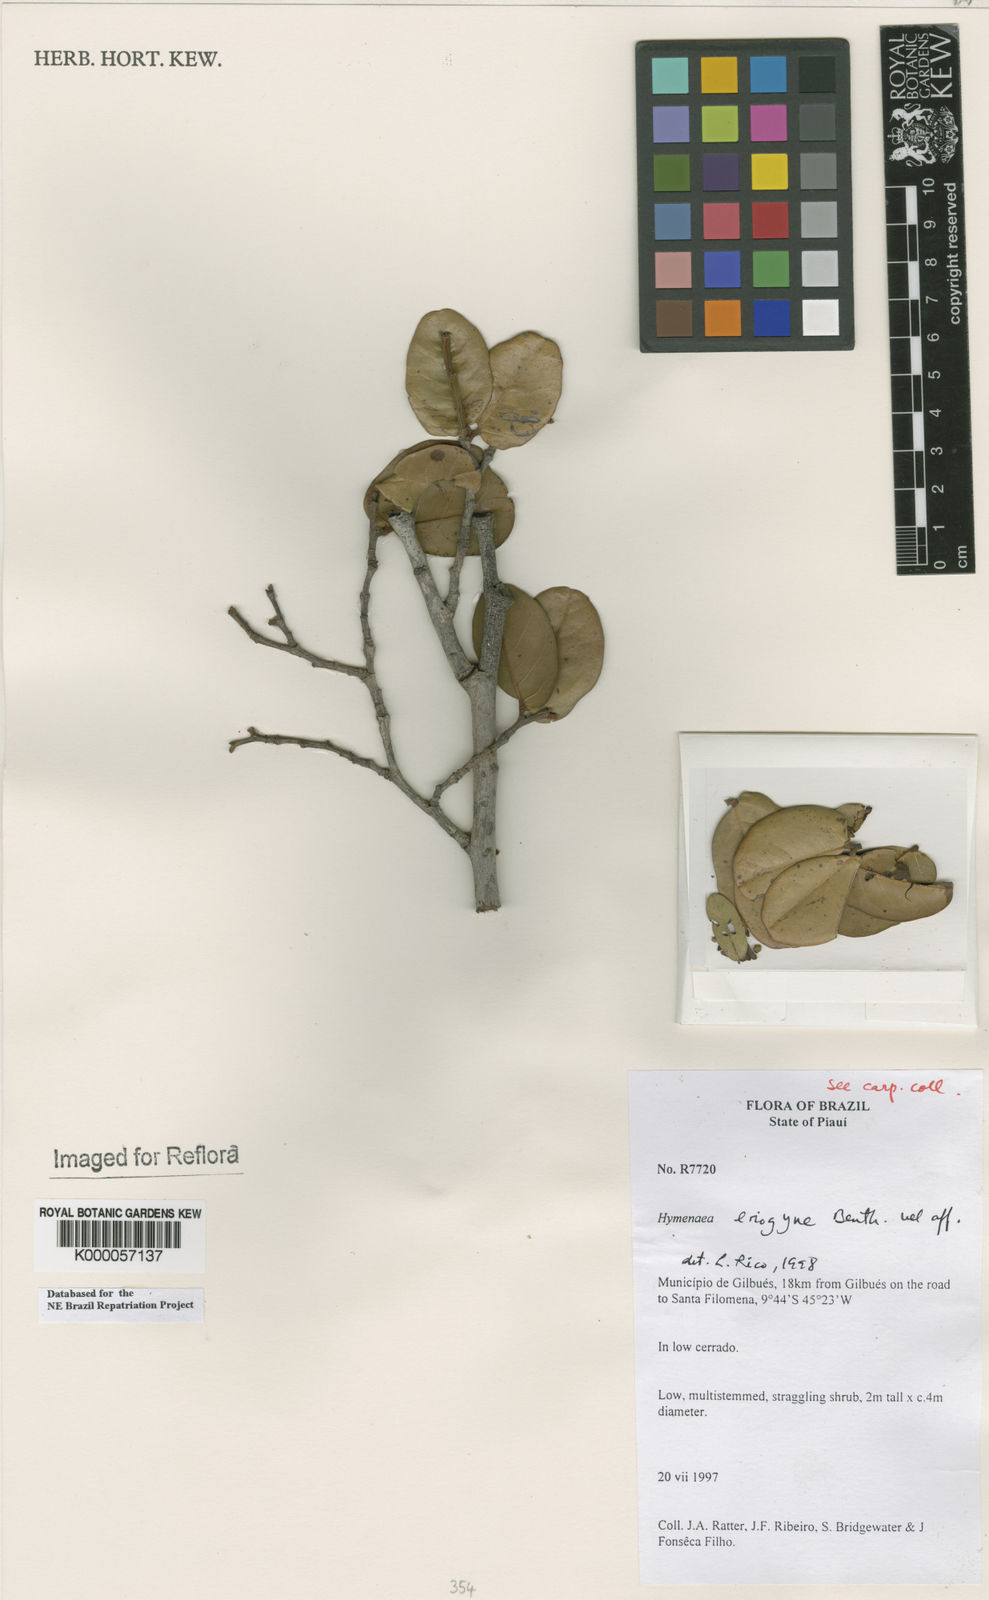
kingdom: Plantae
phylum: Tracheophyta
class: Magnoliopsida
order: Fabales
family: Fabaceae
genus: Hymenaea
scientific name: Hymenaea eriogyne
